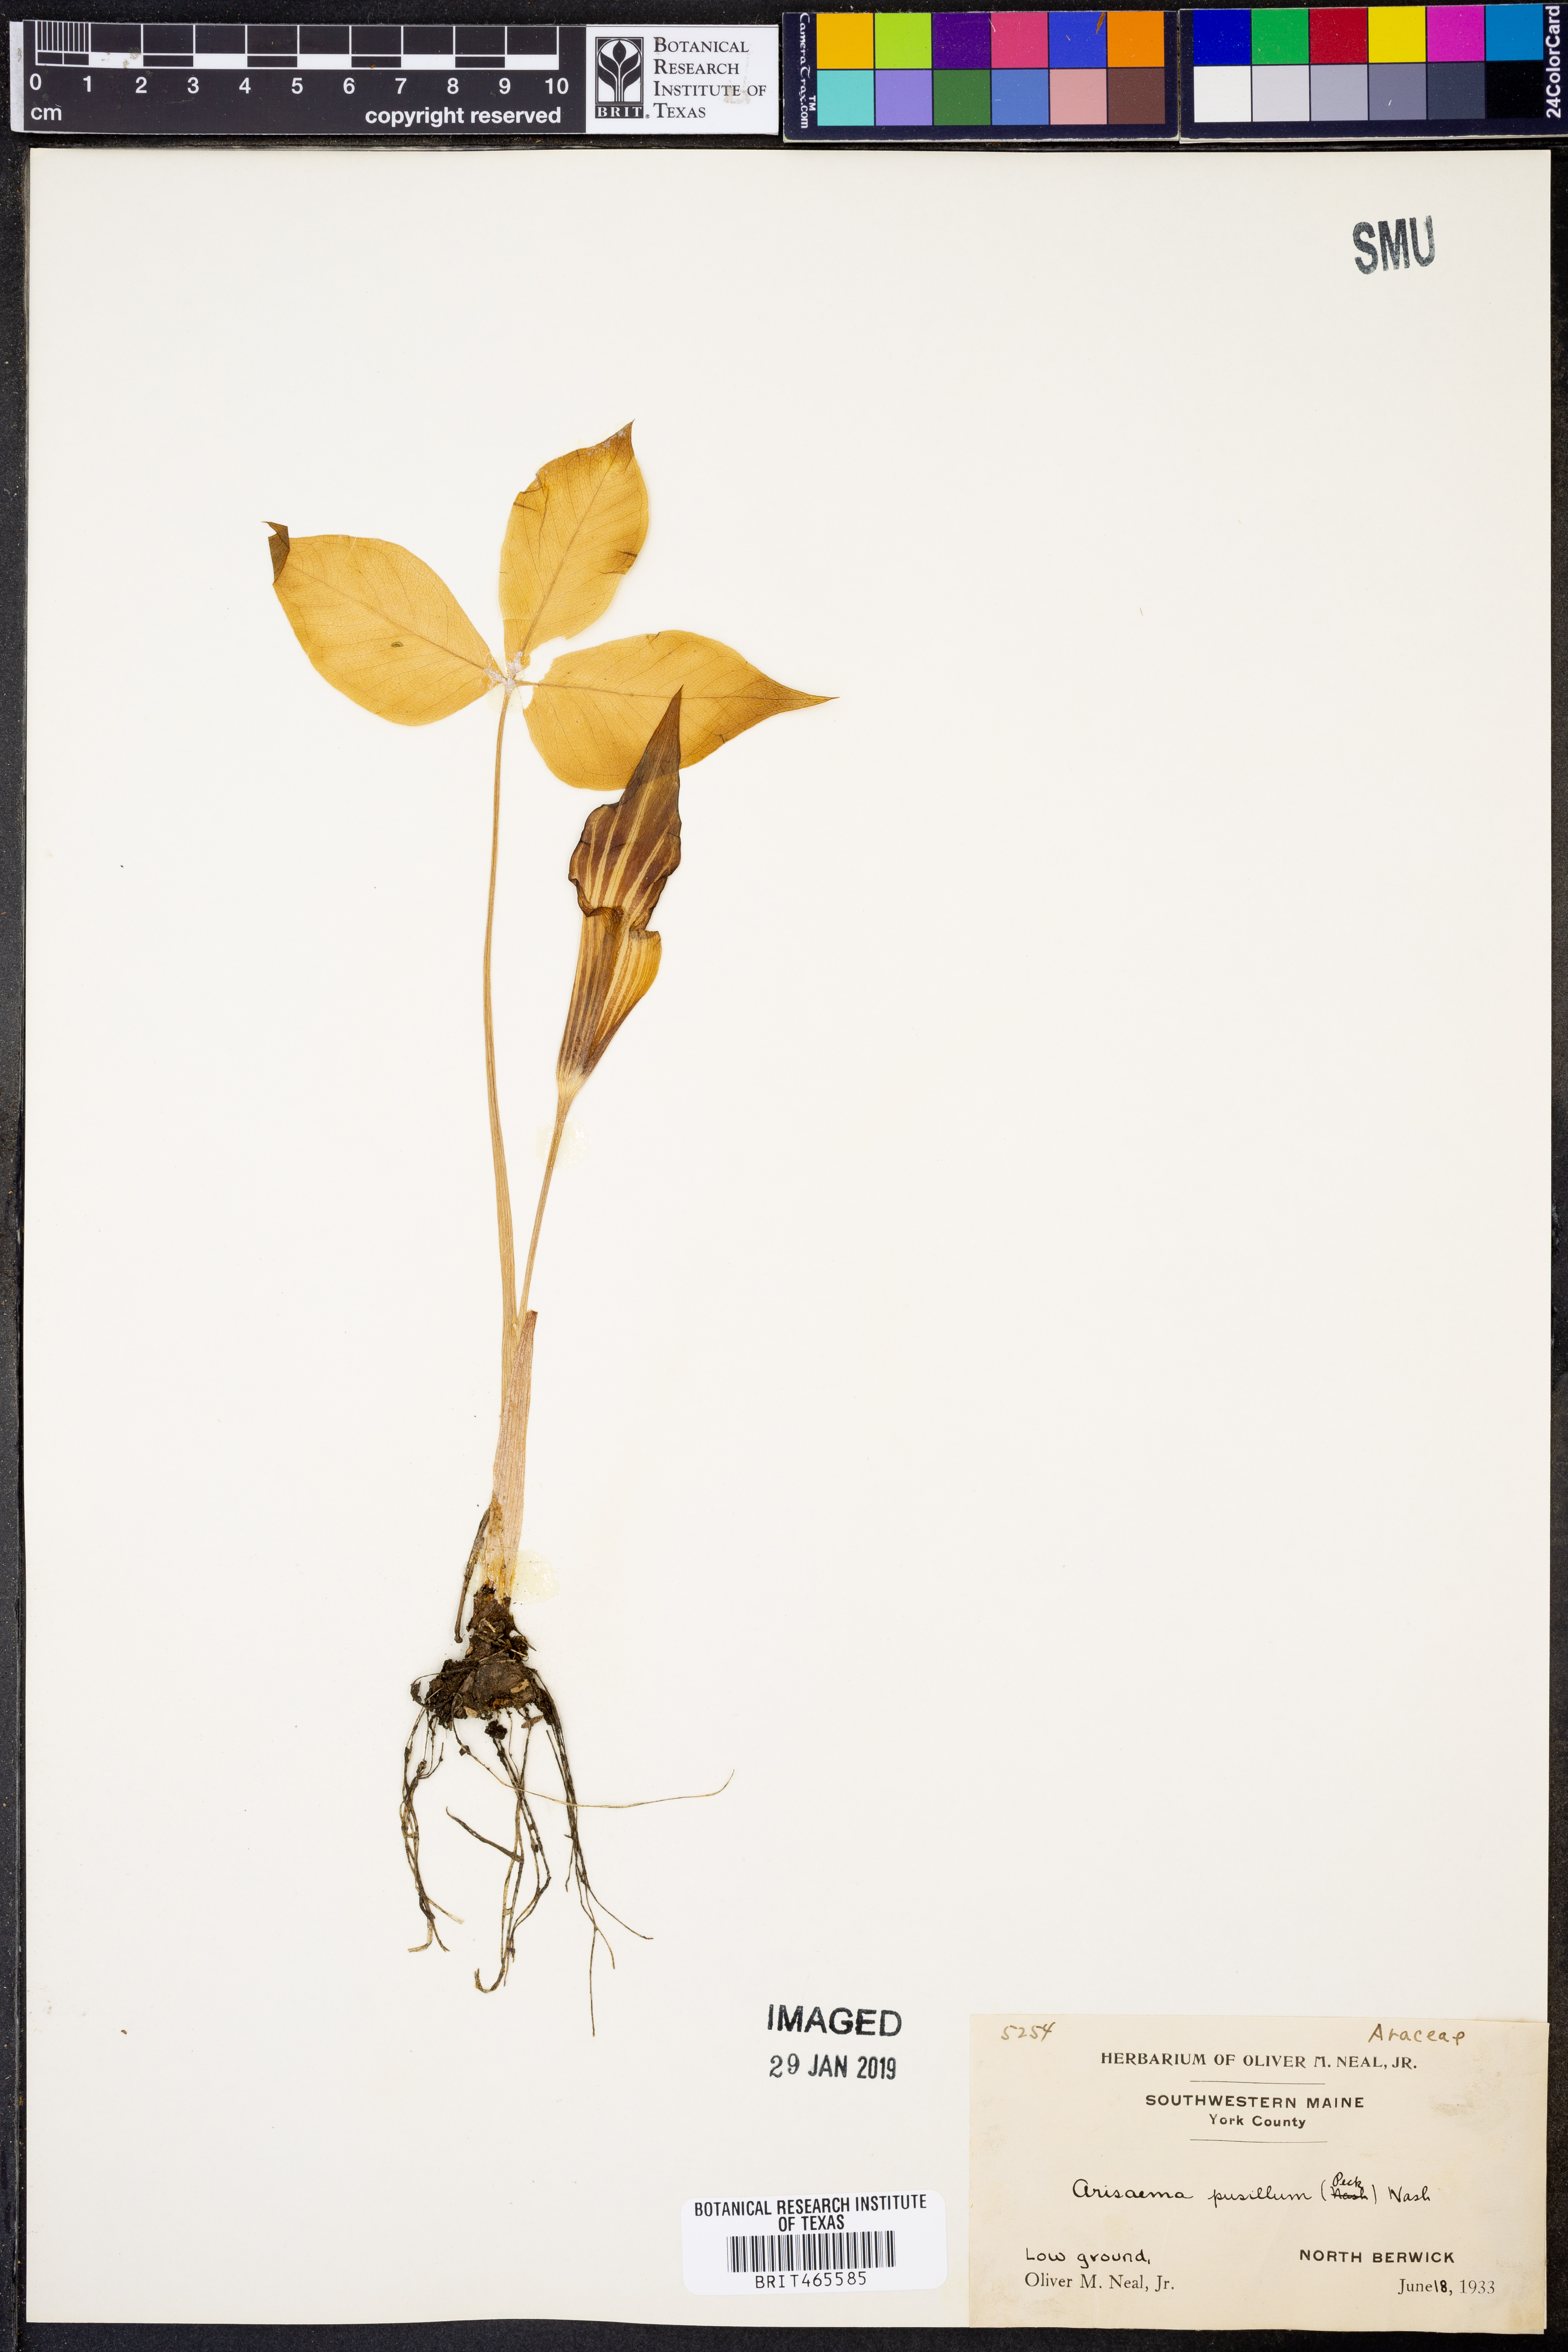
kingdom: Plantae
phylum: Tracheophyta
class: Liliopsida
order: Alismatales
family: Araceae
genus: Arisaema
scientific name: Arisaema pusillum
